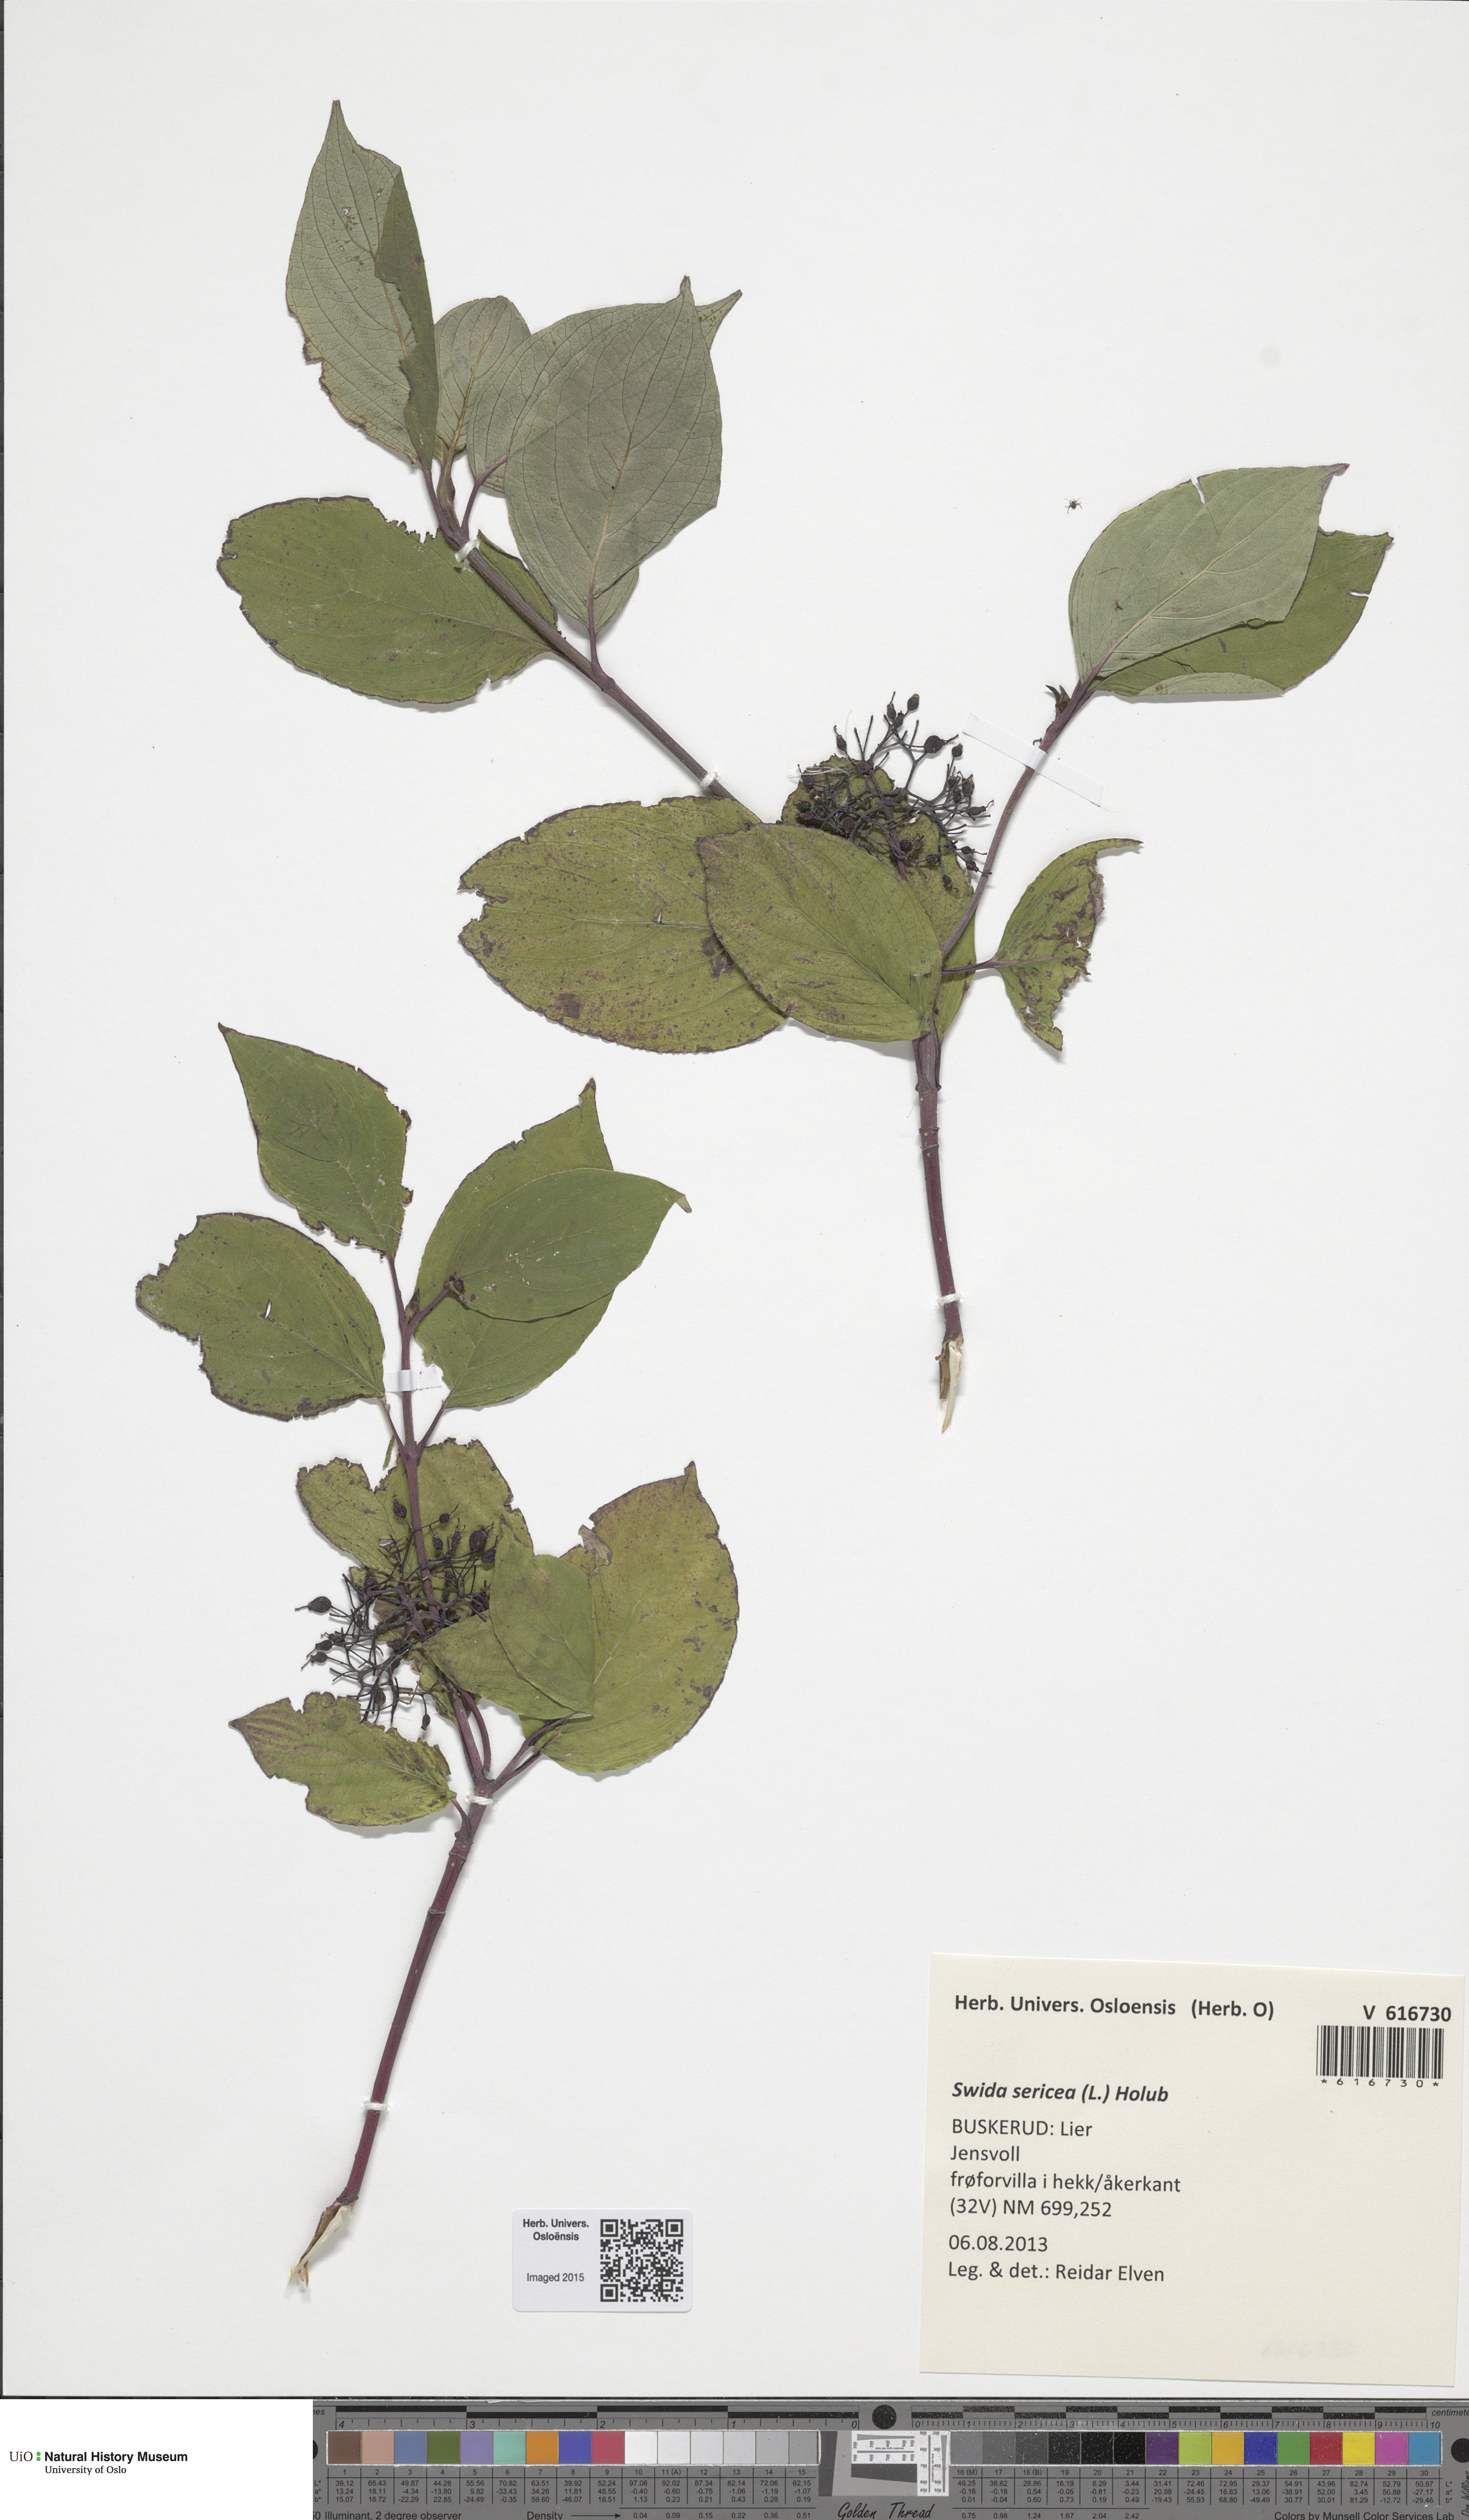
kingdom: Plantae
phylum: Tracheophyta
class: Magnoliopsida
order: Cornales
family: Cornaceae
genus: Cornus
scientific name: Cornus alba
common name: White dogwood
